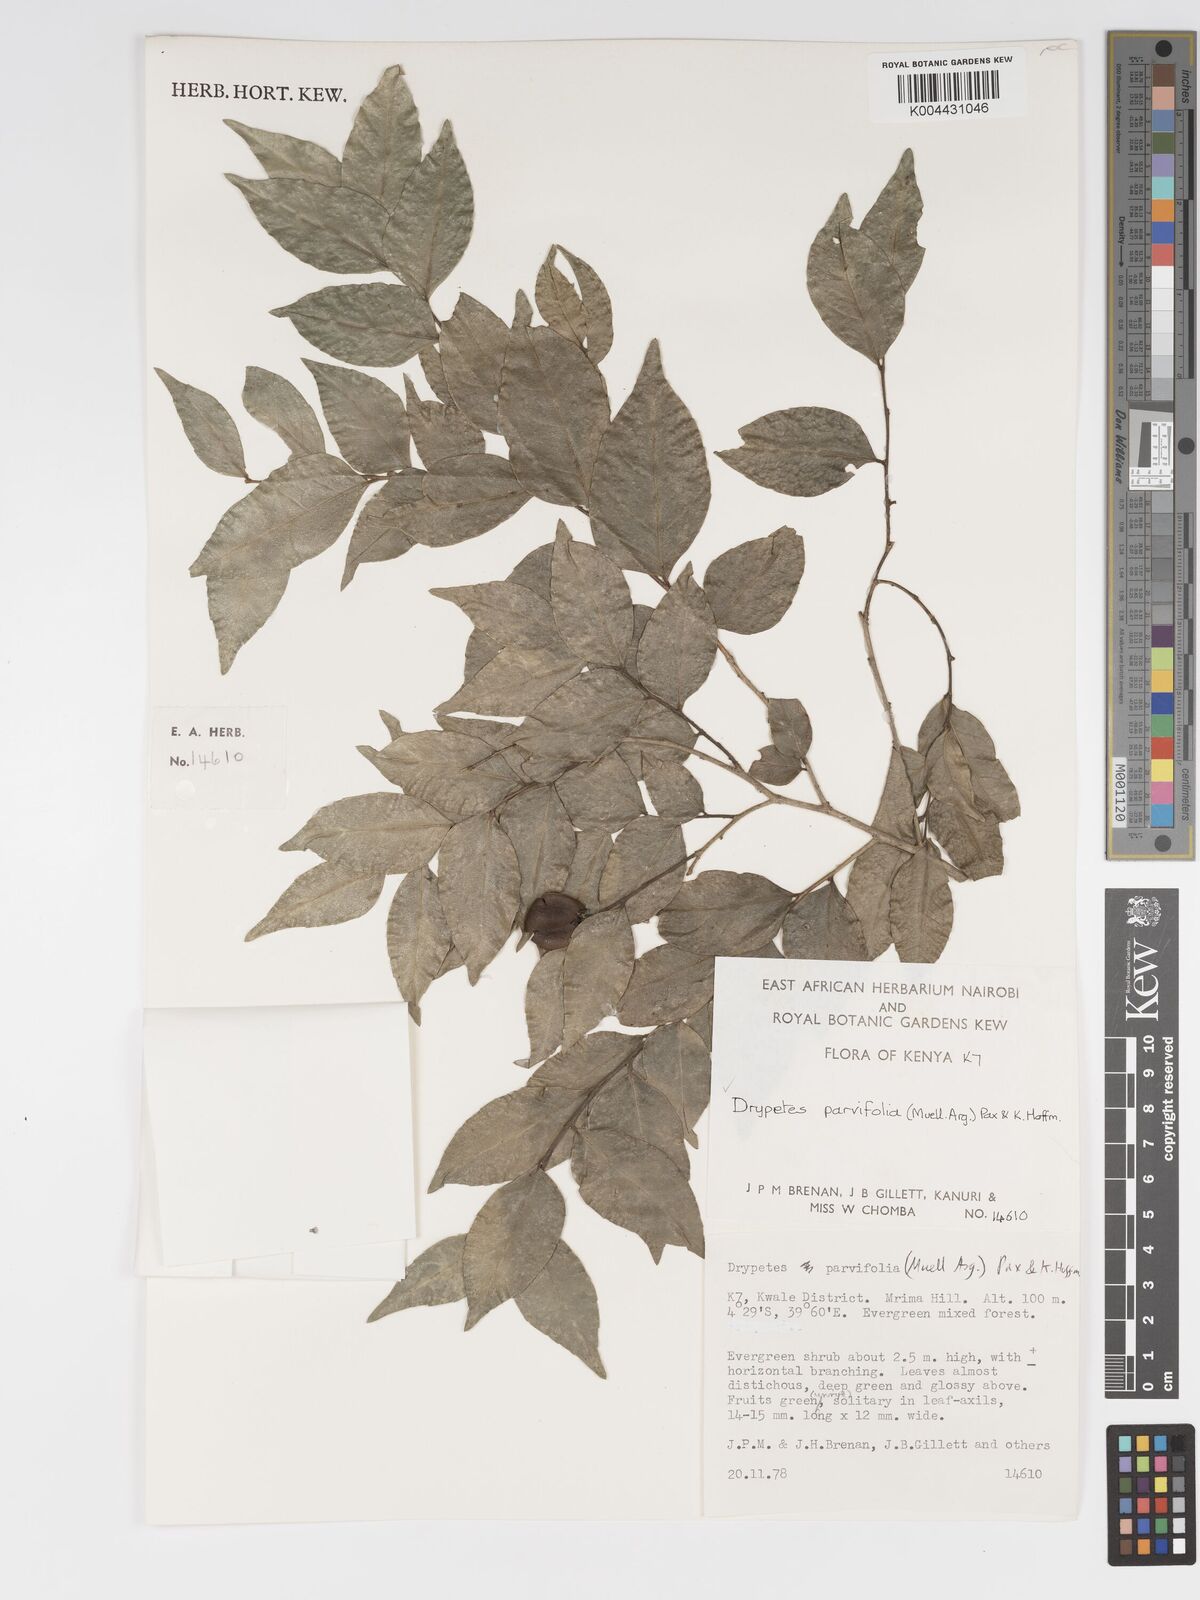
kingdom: Plantae
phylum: Tracheophyta
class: Magnoliopsida
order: Malpighiales
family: Putranjivaceae
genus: Drypetes
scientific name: Drypetes parvifolia
